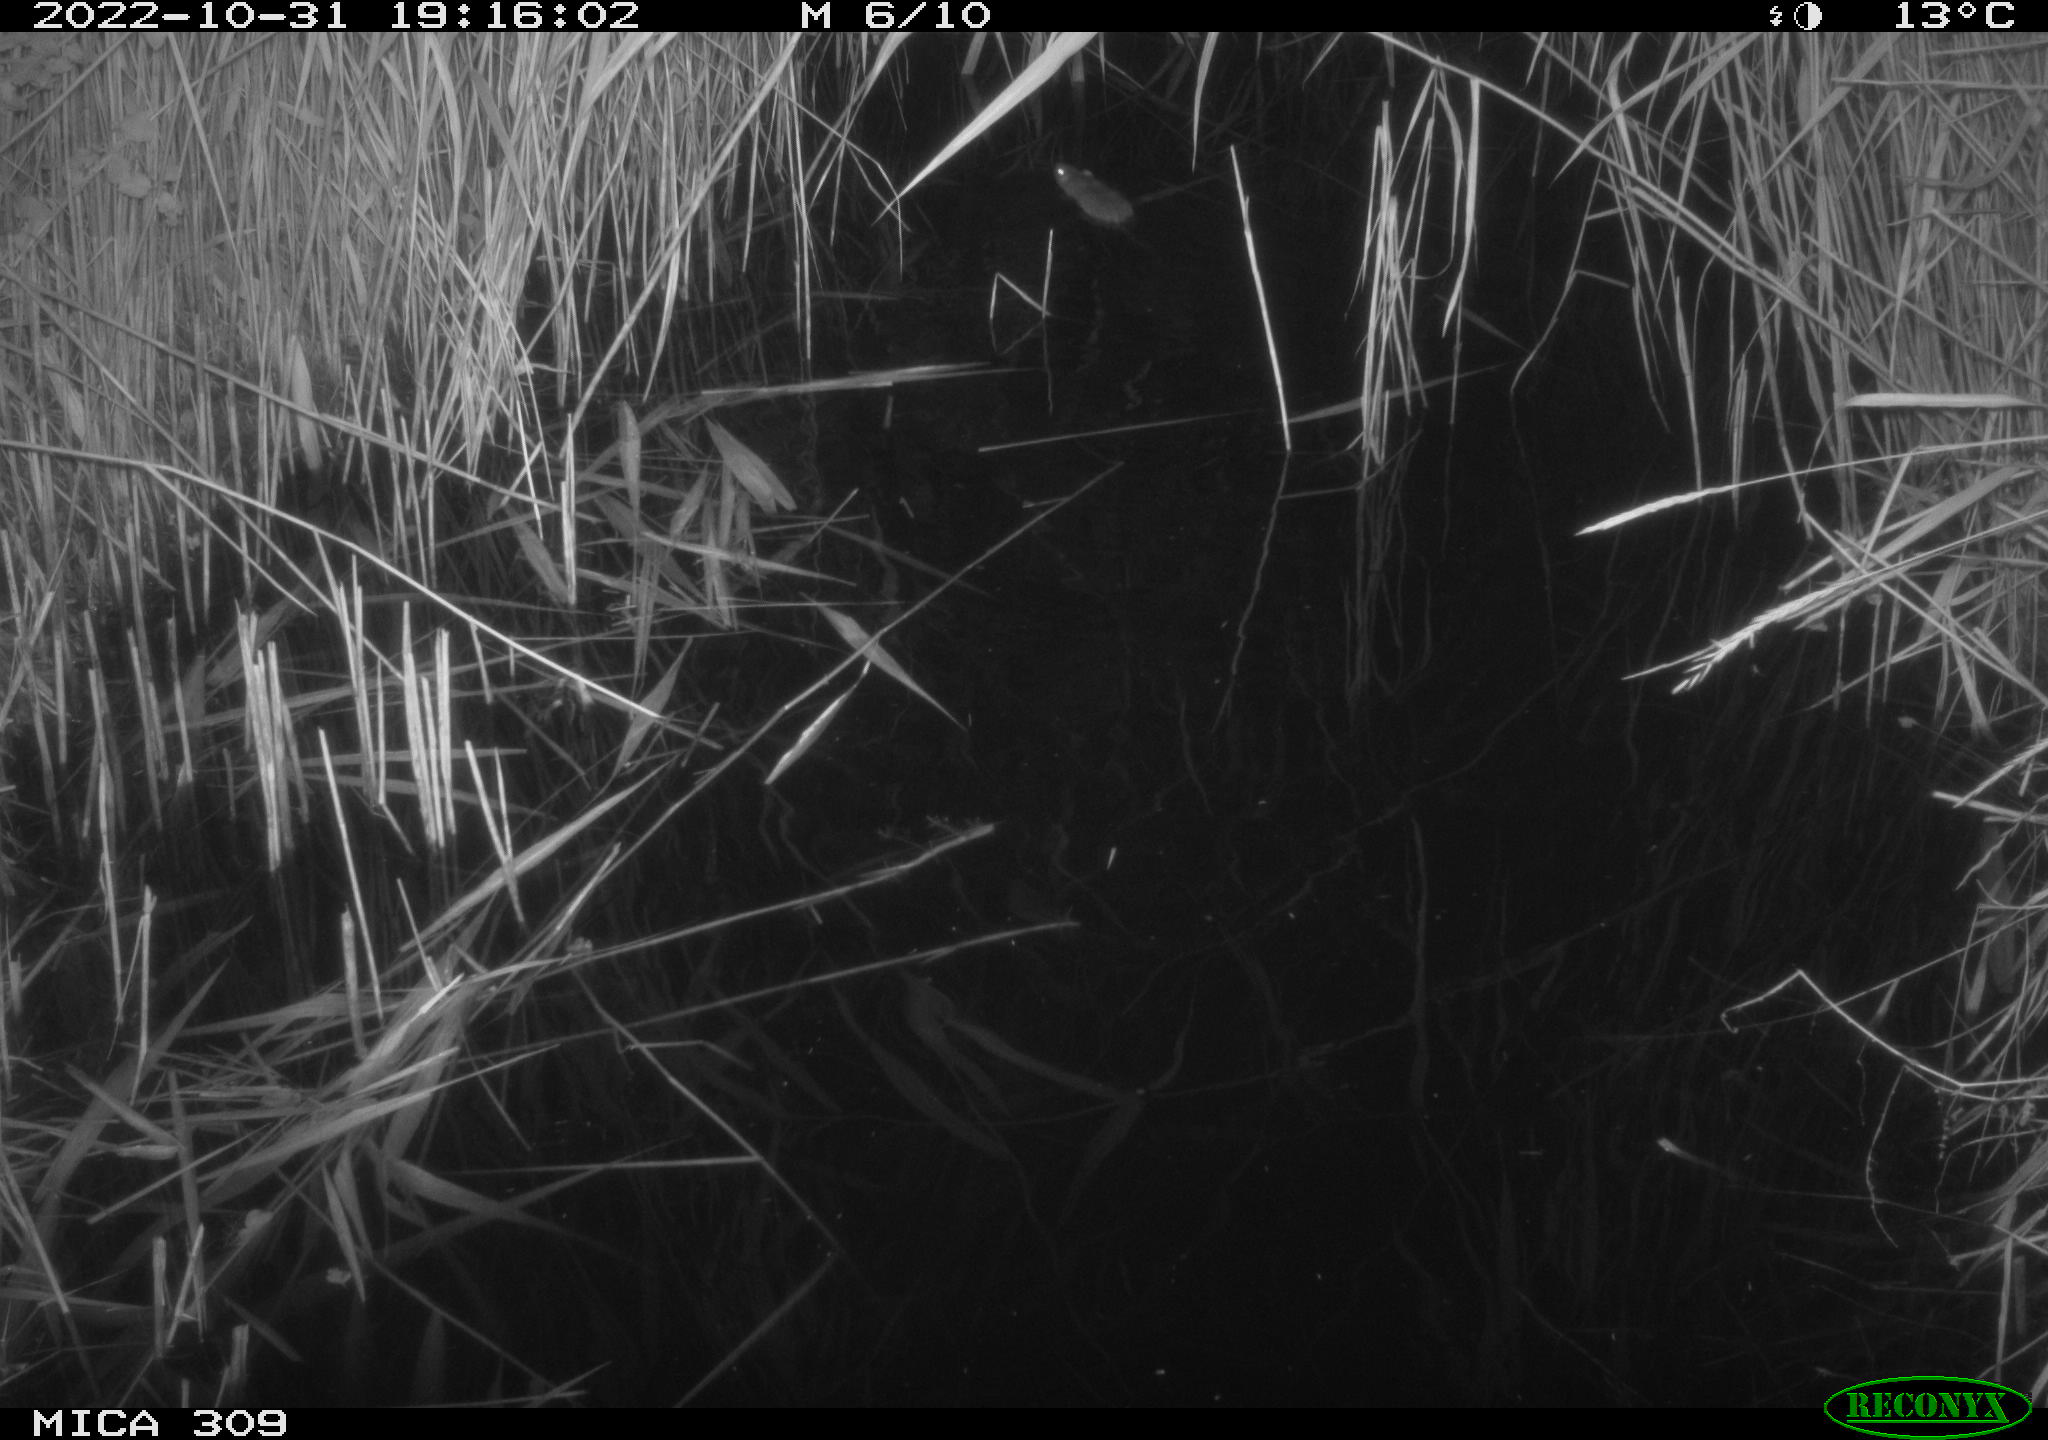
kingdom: Animalia
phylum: Chordata
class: Mammalia
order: Rodentia
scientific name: Rodentia
